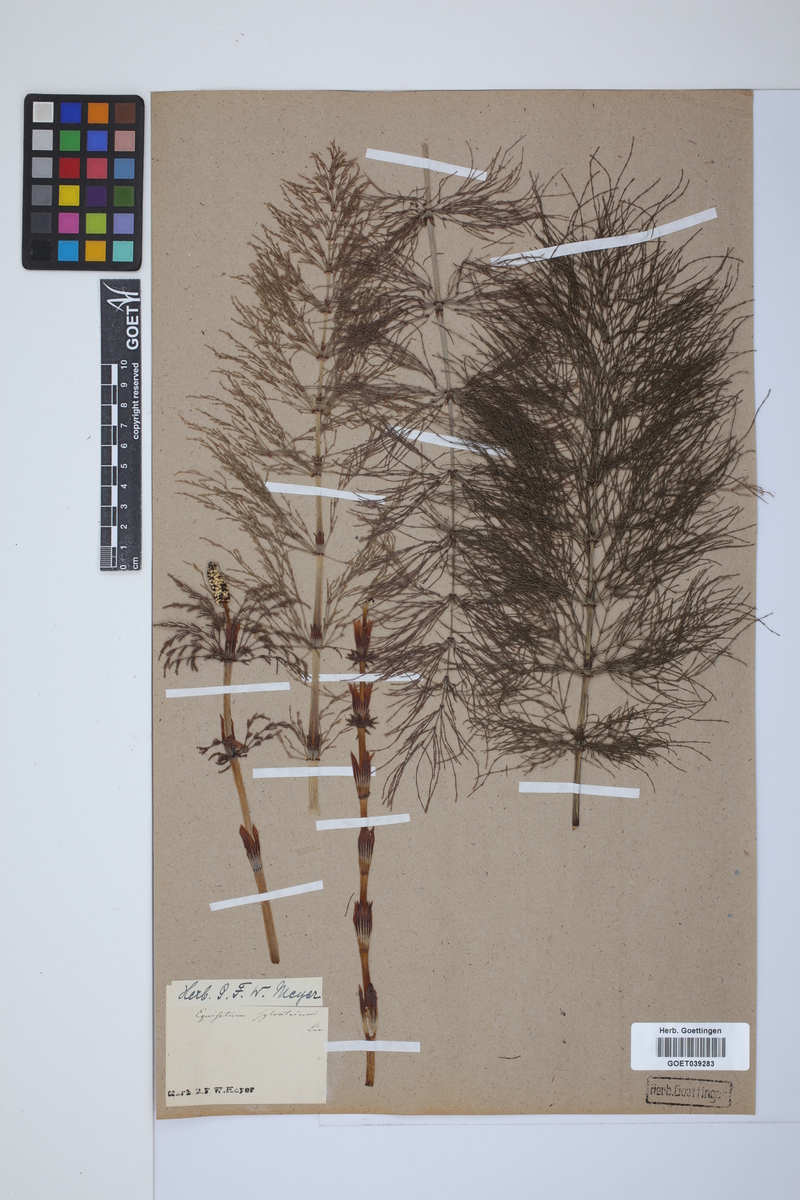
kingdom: Plantae
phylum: Tracheophyta
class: Polypodiopsida
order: Equisetales
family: Equisetaceae
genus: Equisetum
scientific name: Equisetum sylvaticum
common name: Wood horsetail
